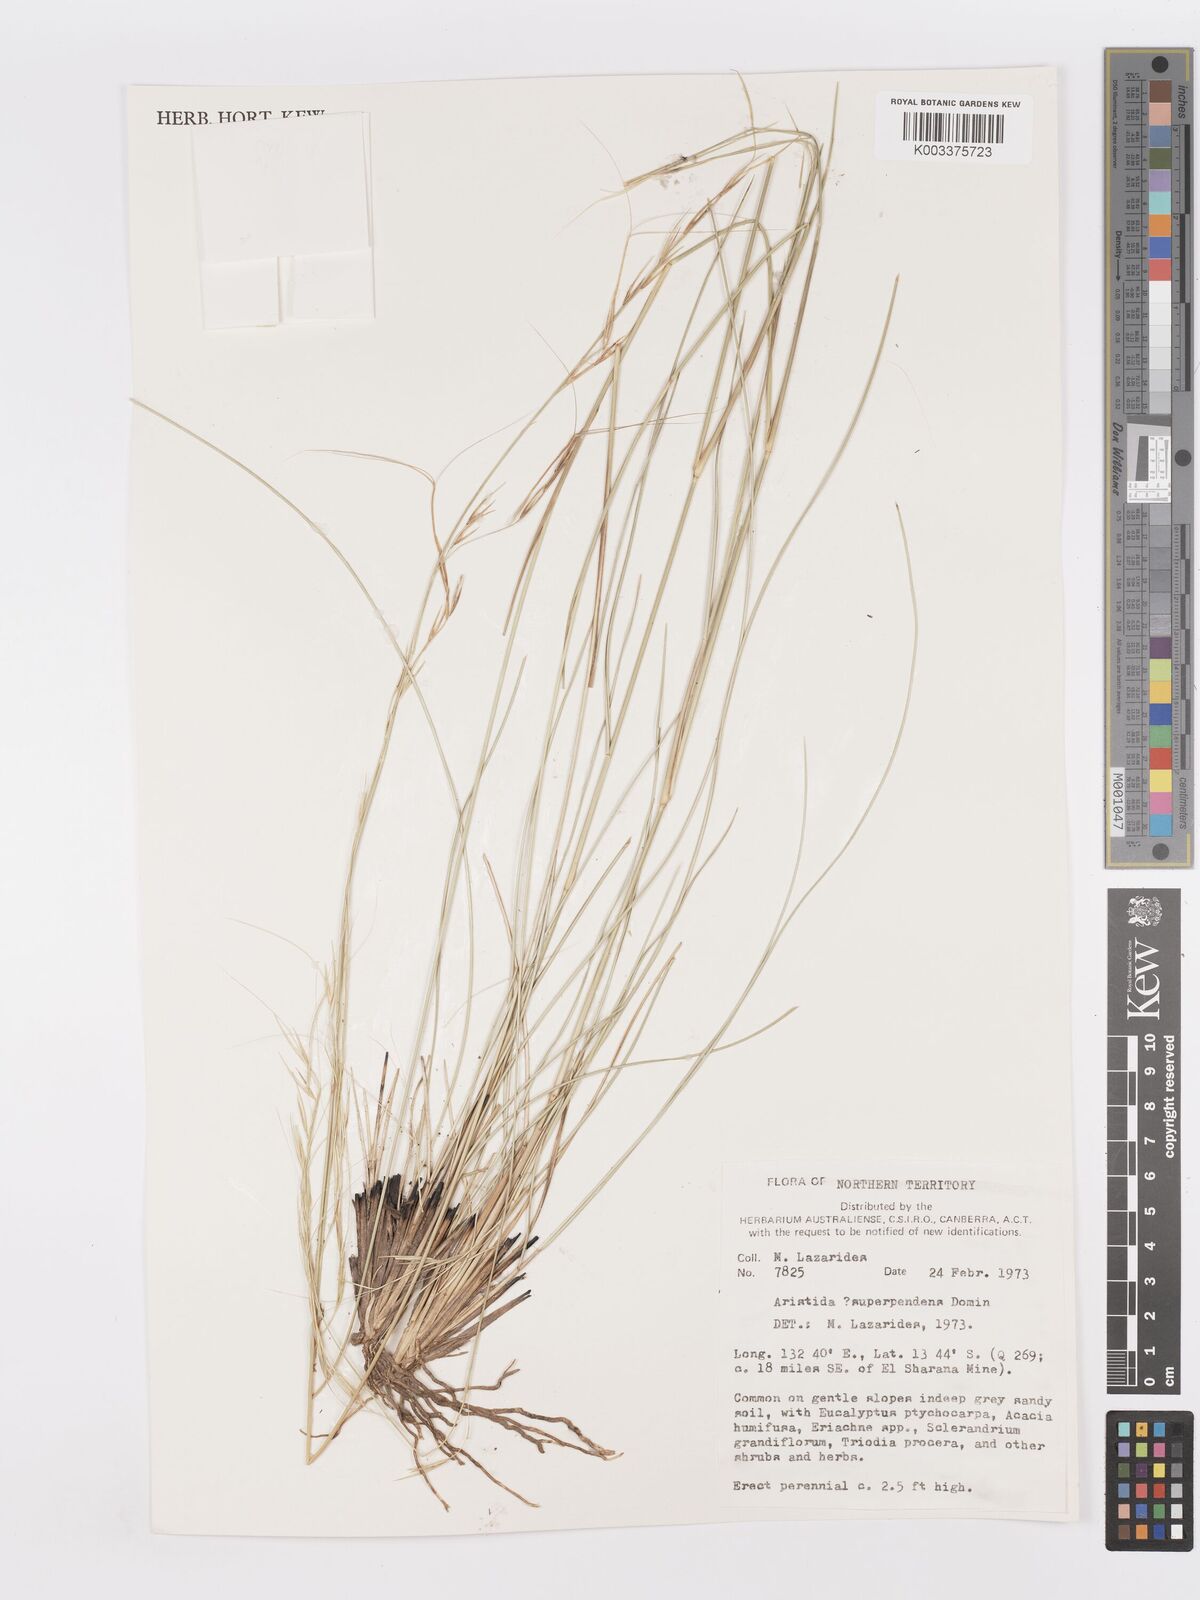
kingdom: Plantae
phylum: Tracheophyta
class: Liliopsida
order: Poales
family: Poaceae
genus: Aristida
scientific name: Aristida
